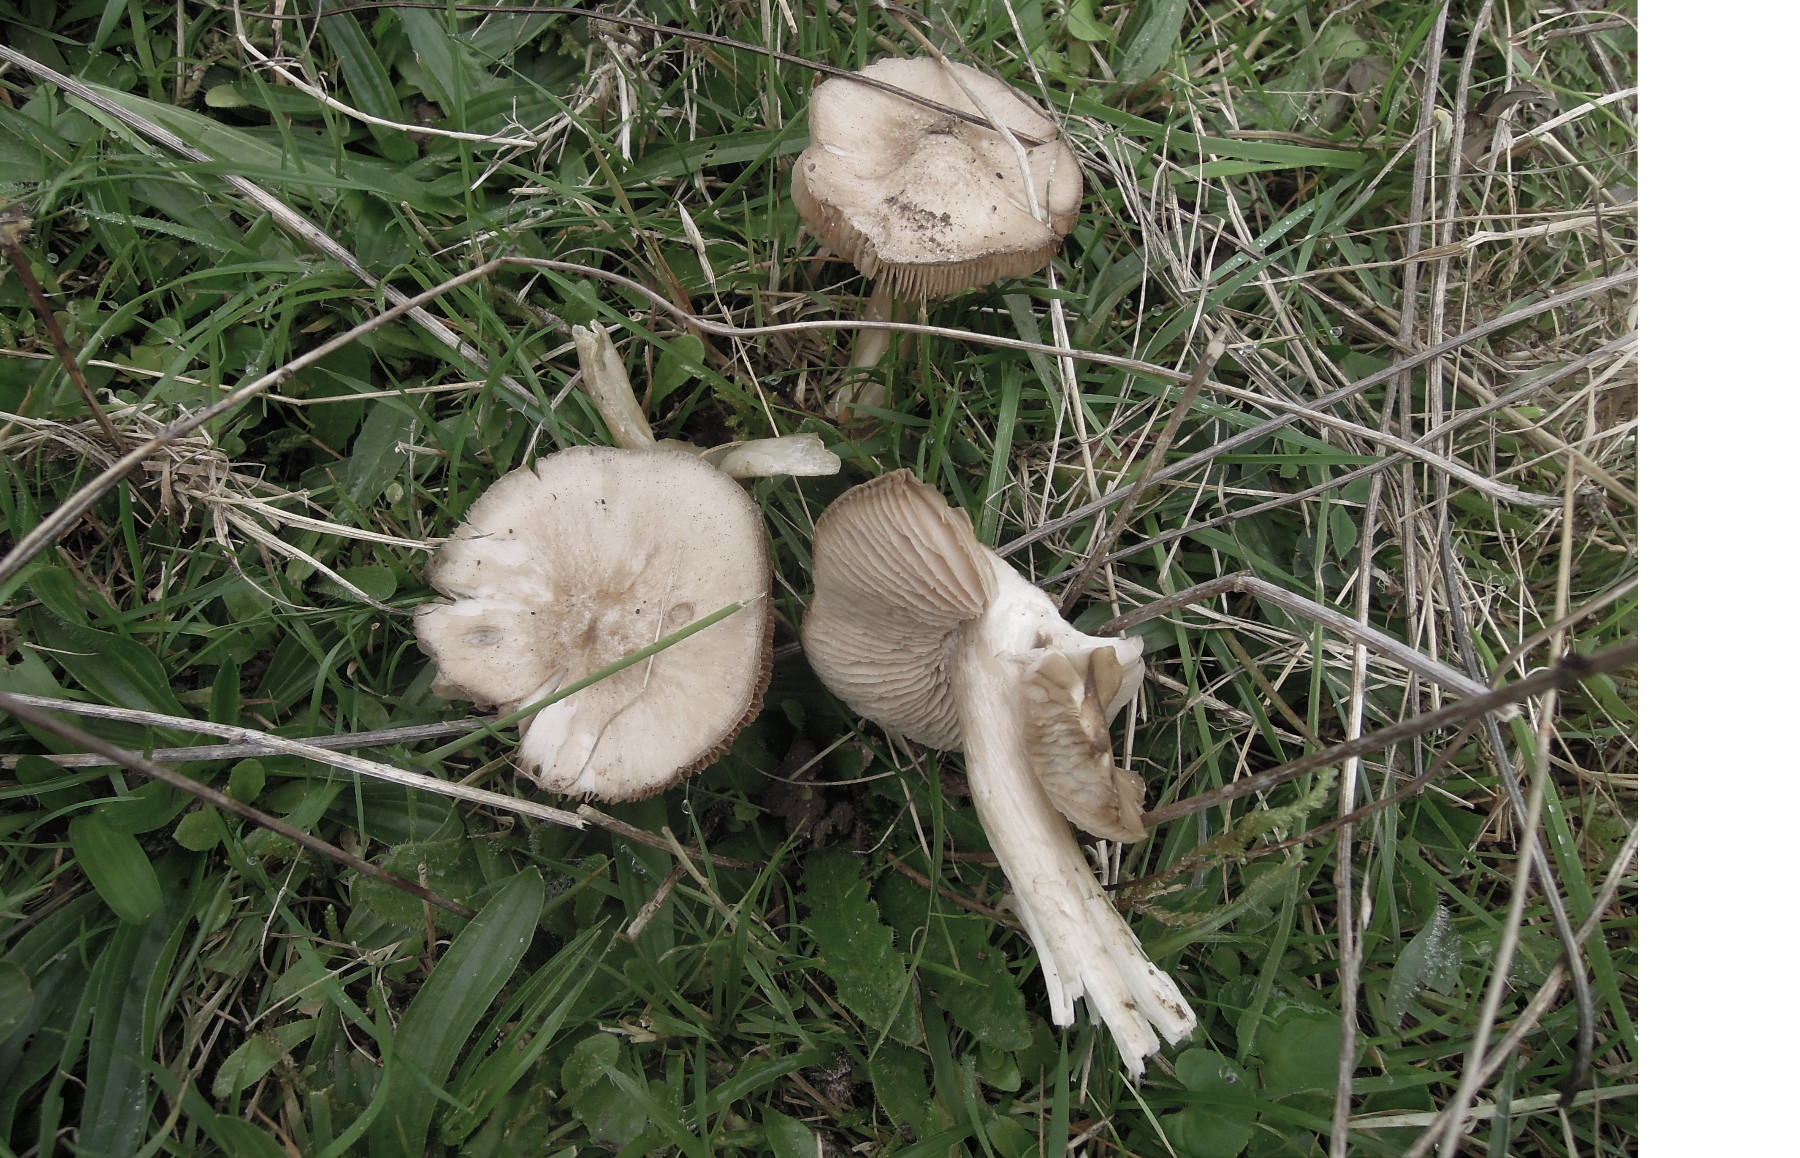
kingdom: Fungi
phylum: Basidiomycota
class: Agaricomycetes
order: Agaricales
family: Entolomataceae
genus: Entoloma
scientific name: Entoloma prunuloides
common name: mel-rødblad
